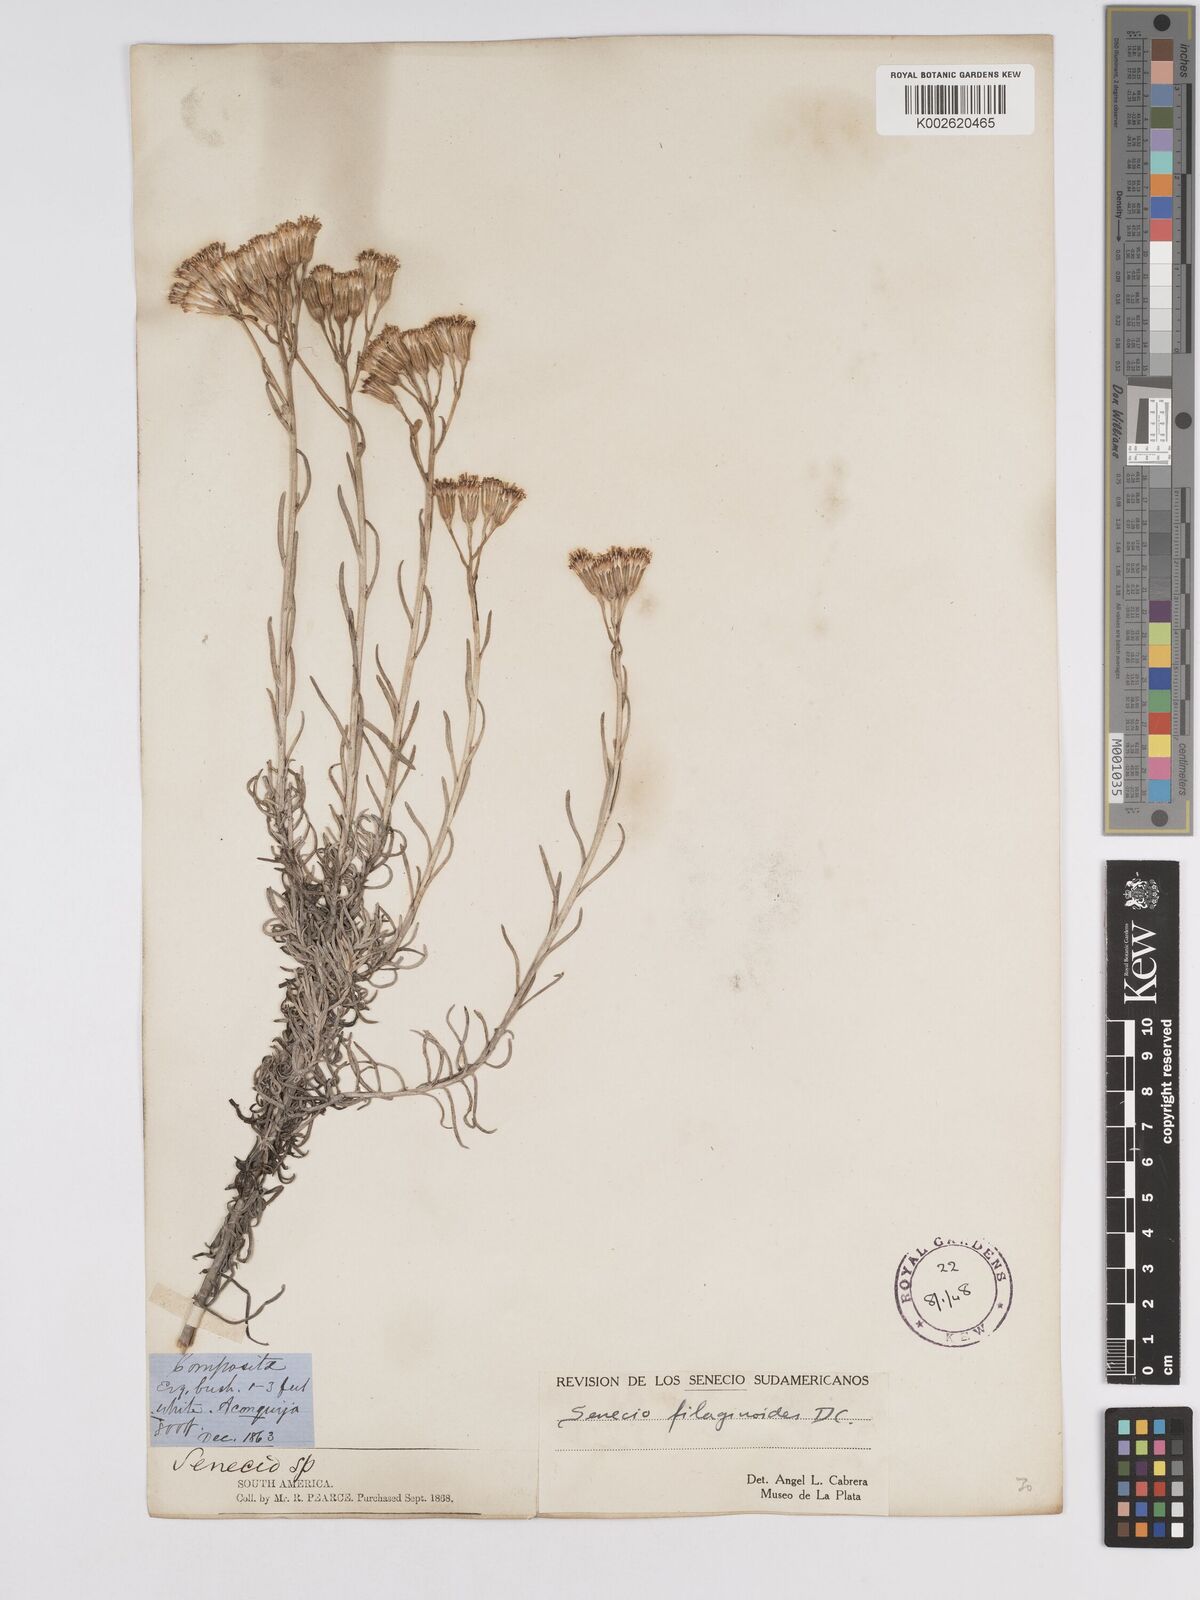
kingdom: Plantae
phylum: Tracheophyta
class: Magnoliopsida
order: Asterales
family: Asteraceae
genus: Senecio
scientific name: Senecio filaginoides
